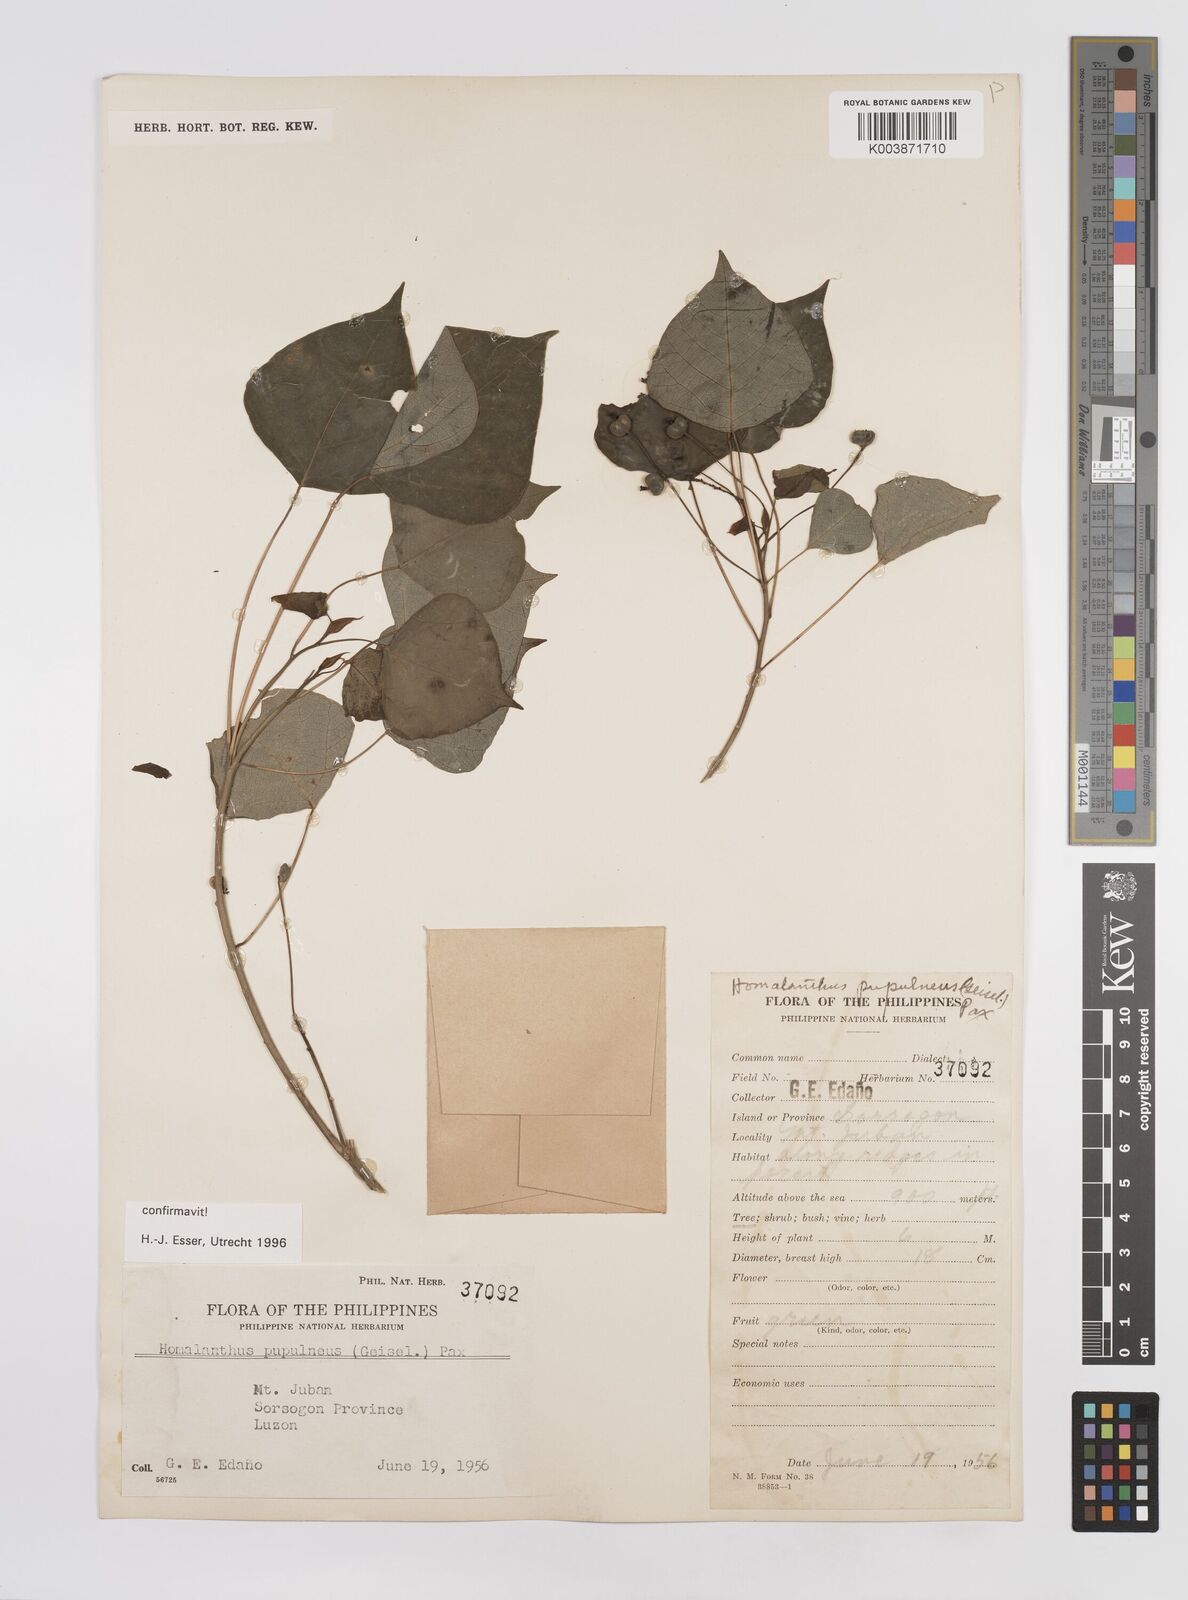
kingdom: Plantae
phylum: Tracheophyta
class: Magnoliopsida
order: Malpighiales
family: Euphorbiaceae
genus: Homalanthus
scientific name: Homalanthus populneus
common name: Spurge
